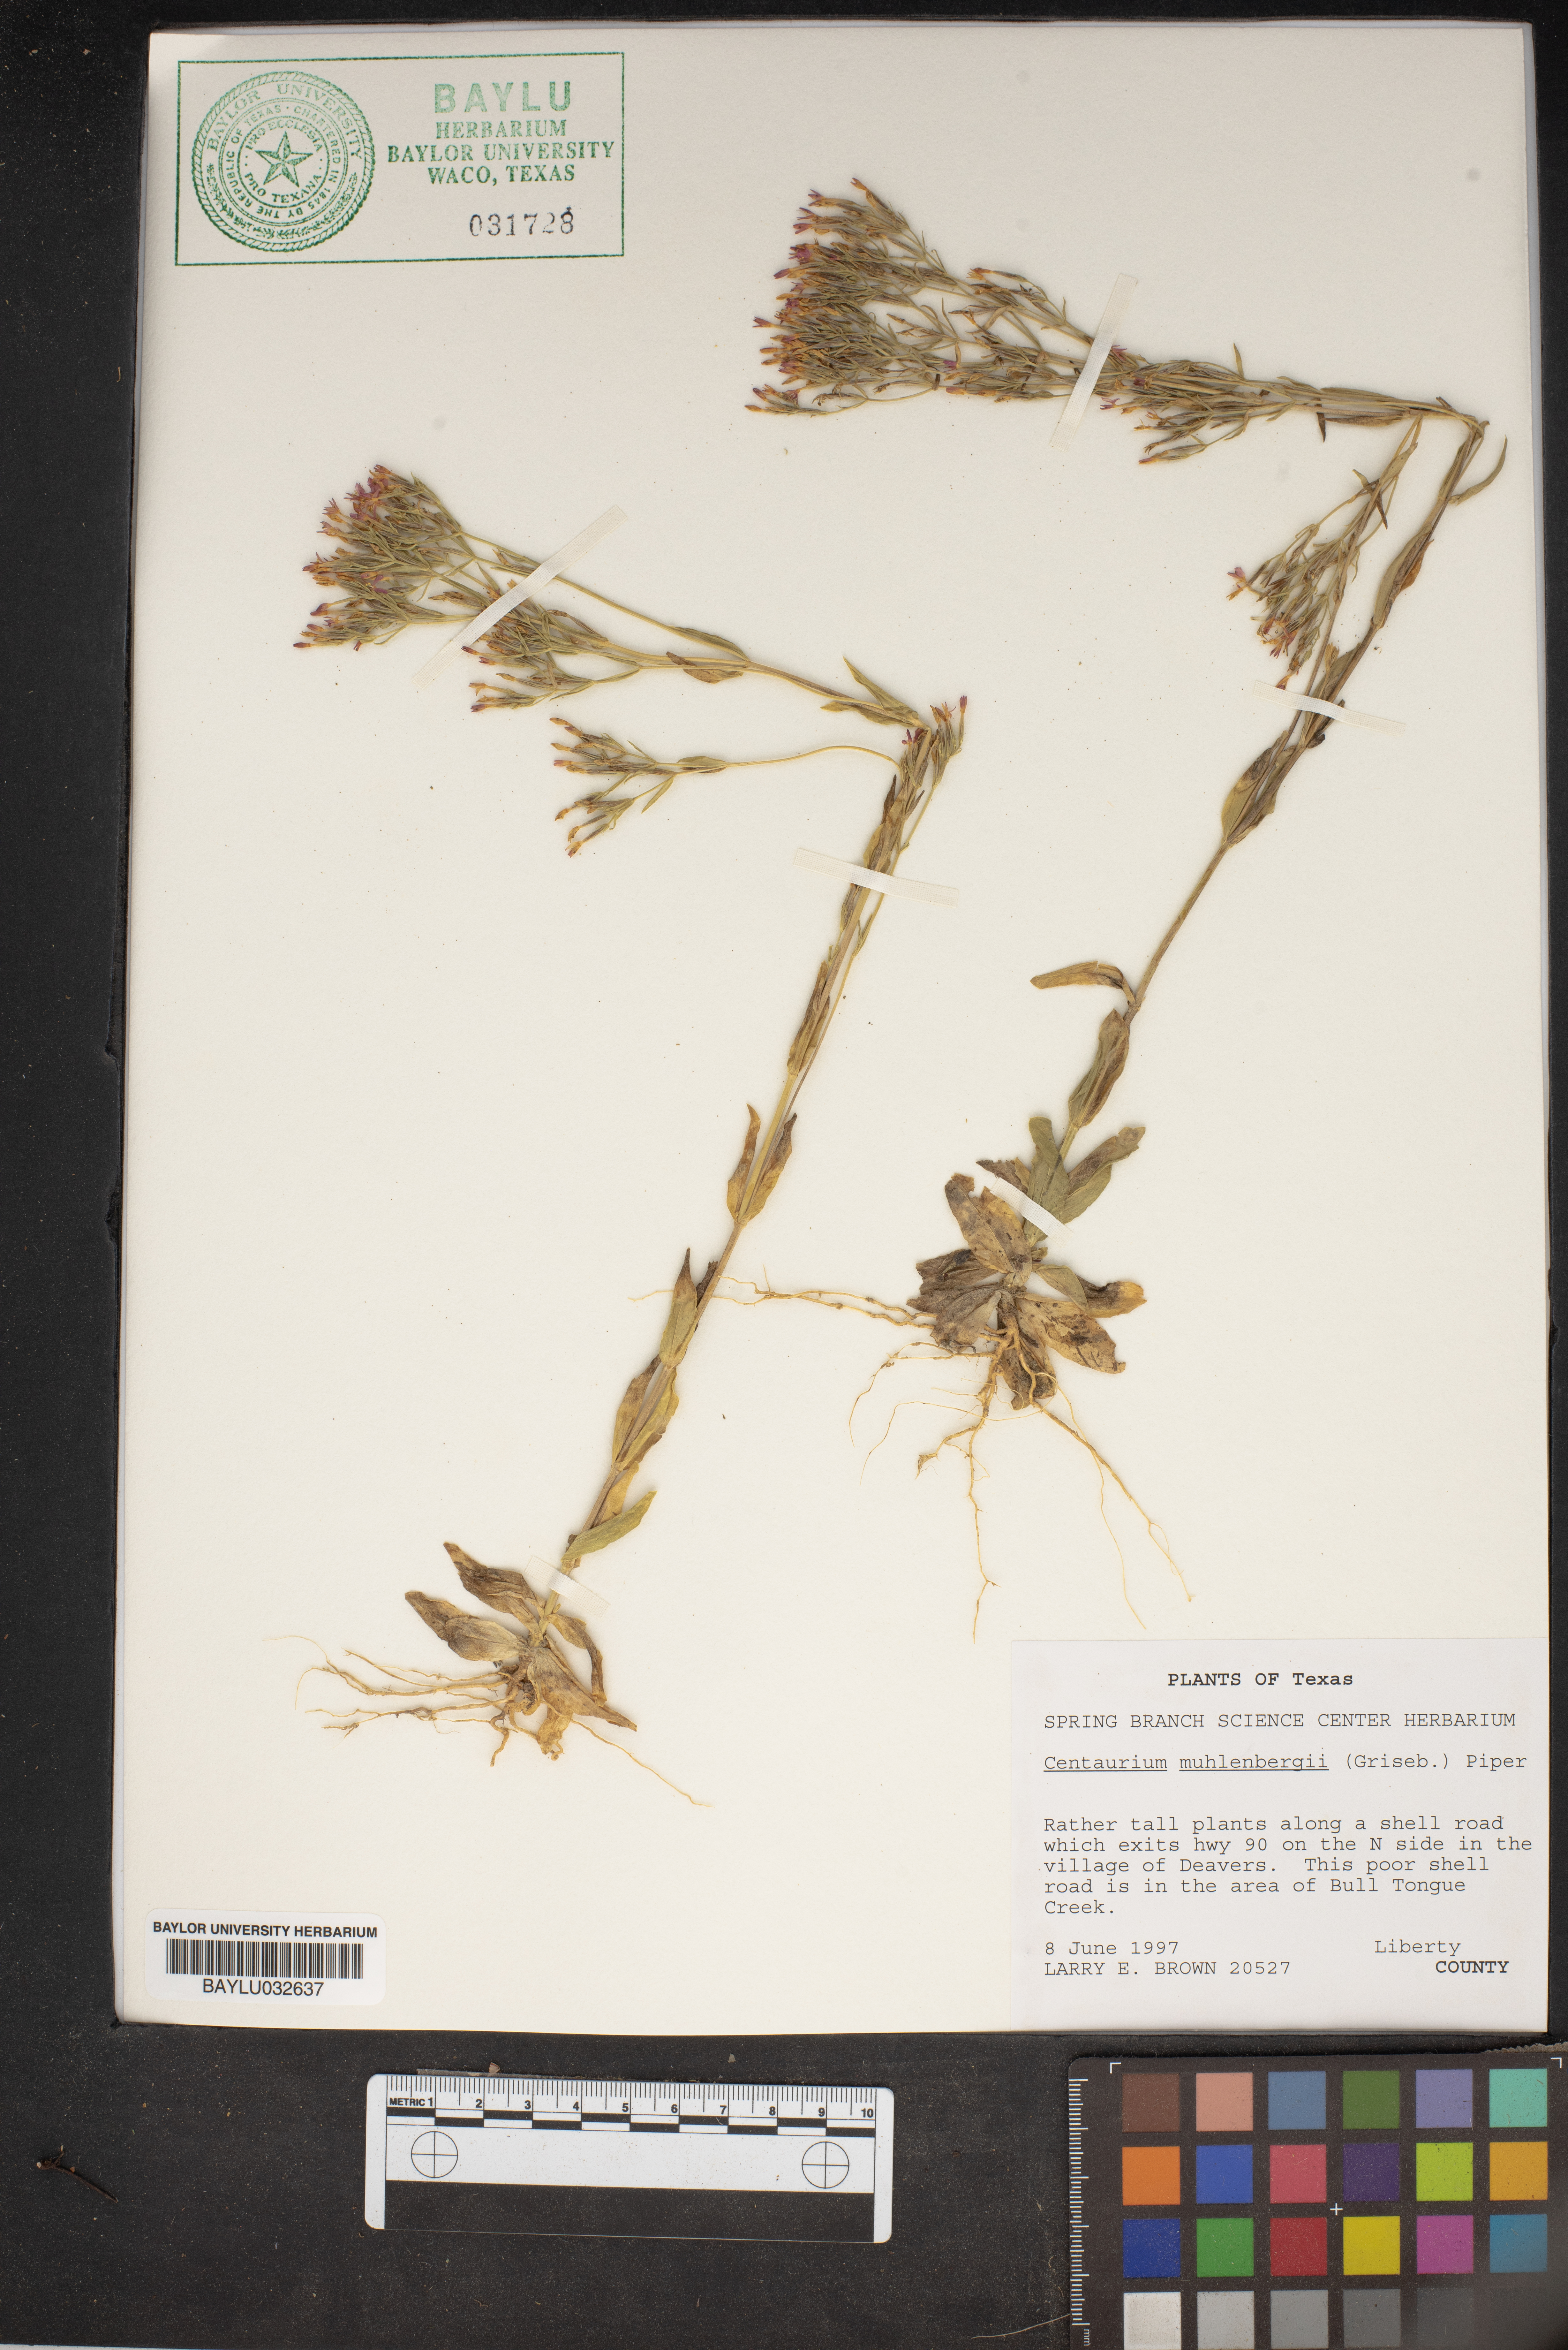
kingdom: Plantae
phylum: Tracheophyta
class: Magnoliopsida
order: Gentianales
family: Gentianaceae
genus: Zeltnera
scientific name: Zeltnera muhlenbergii
